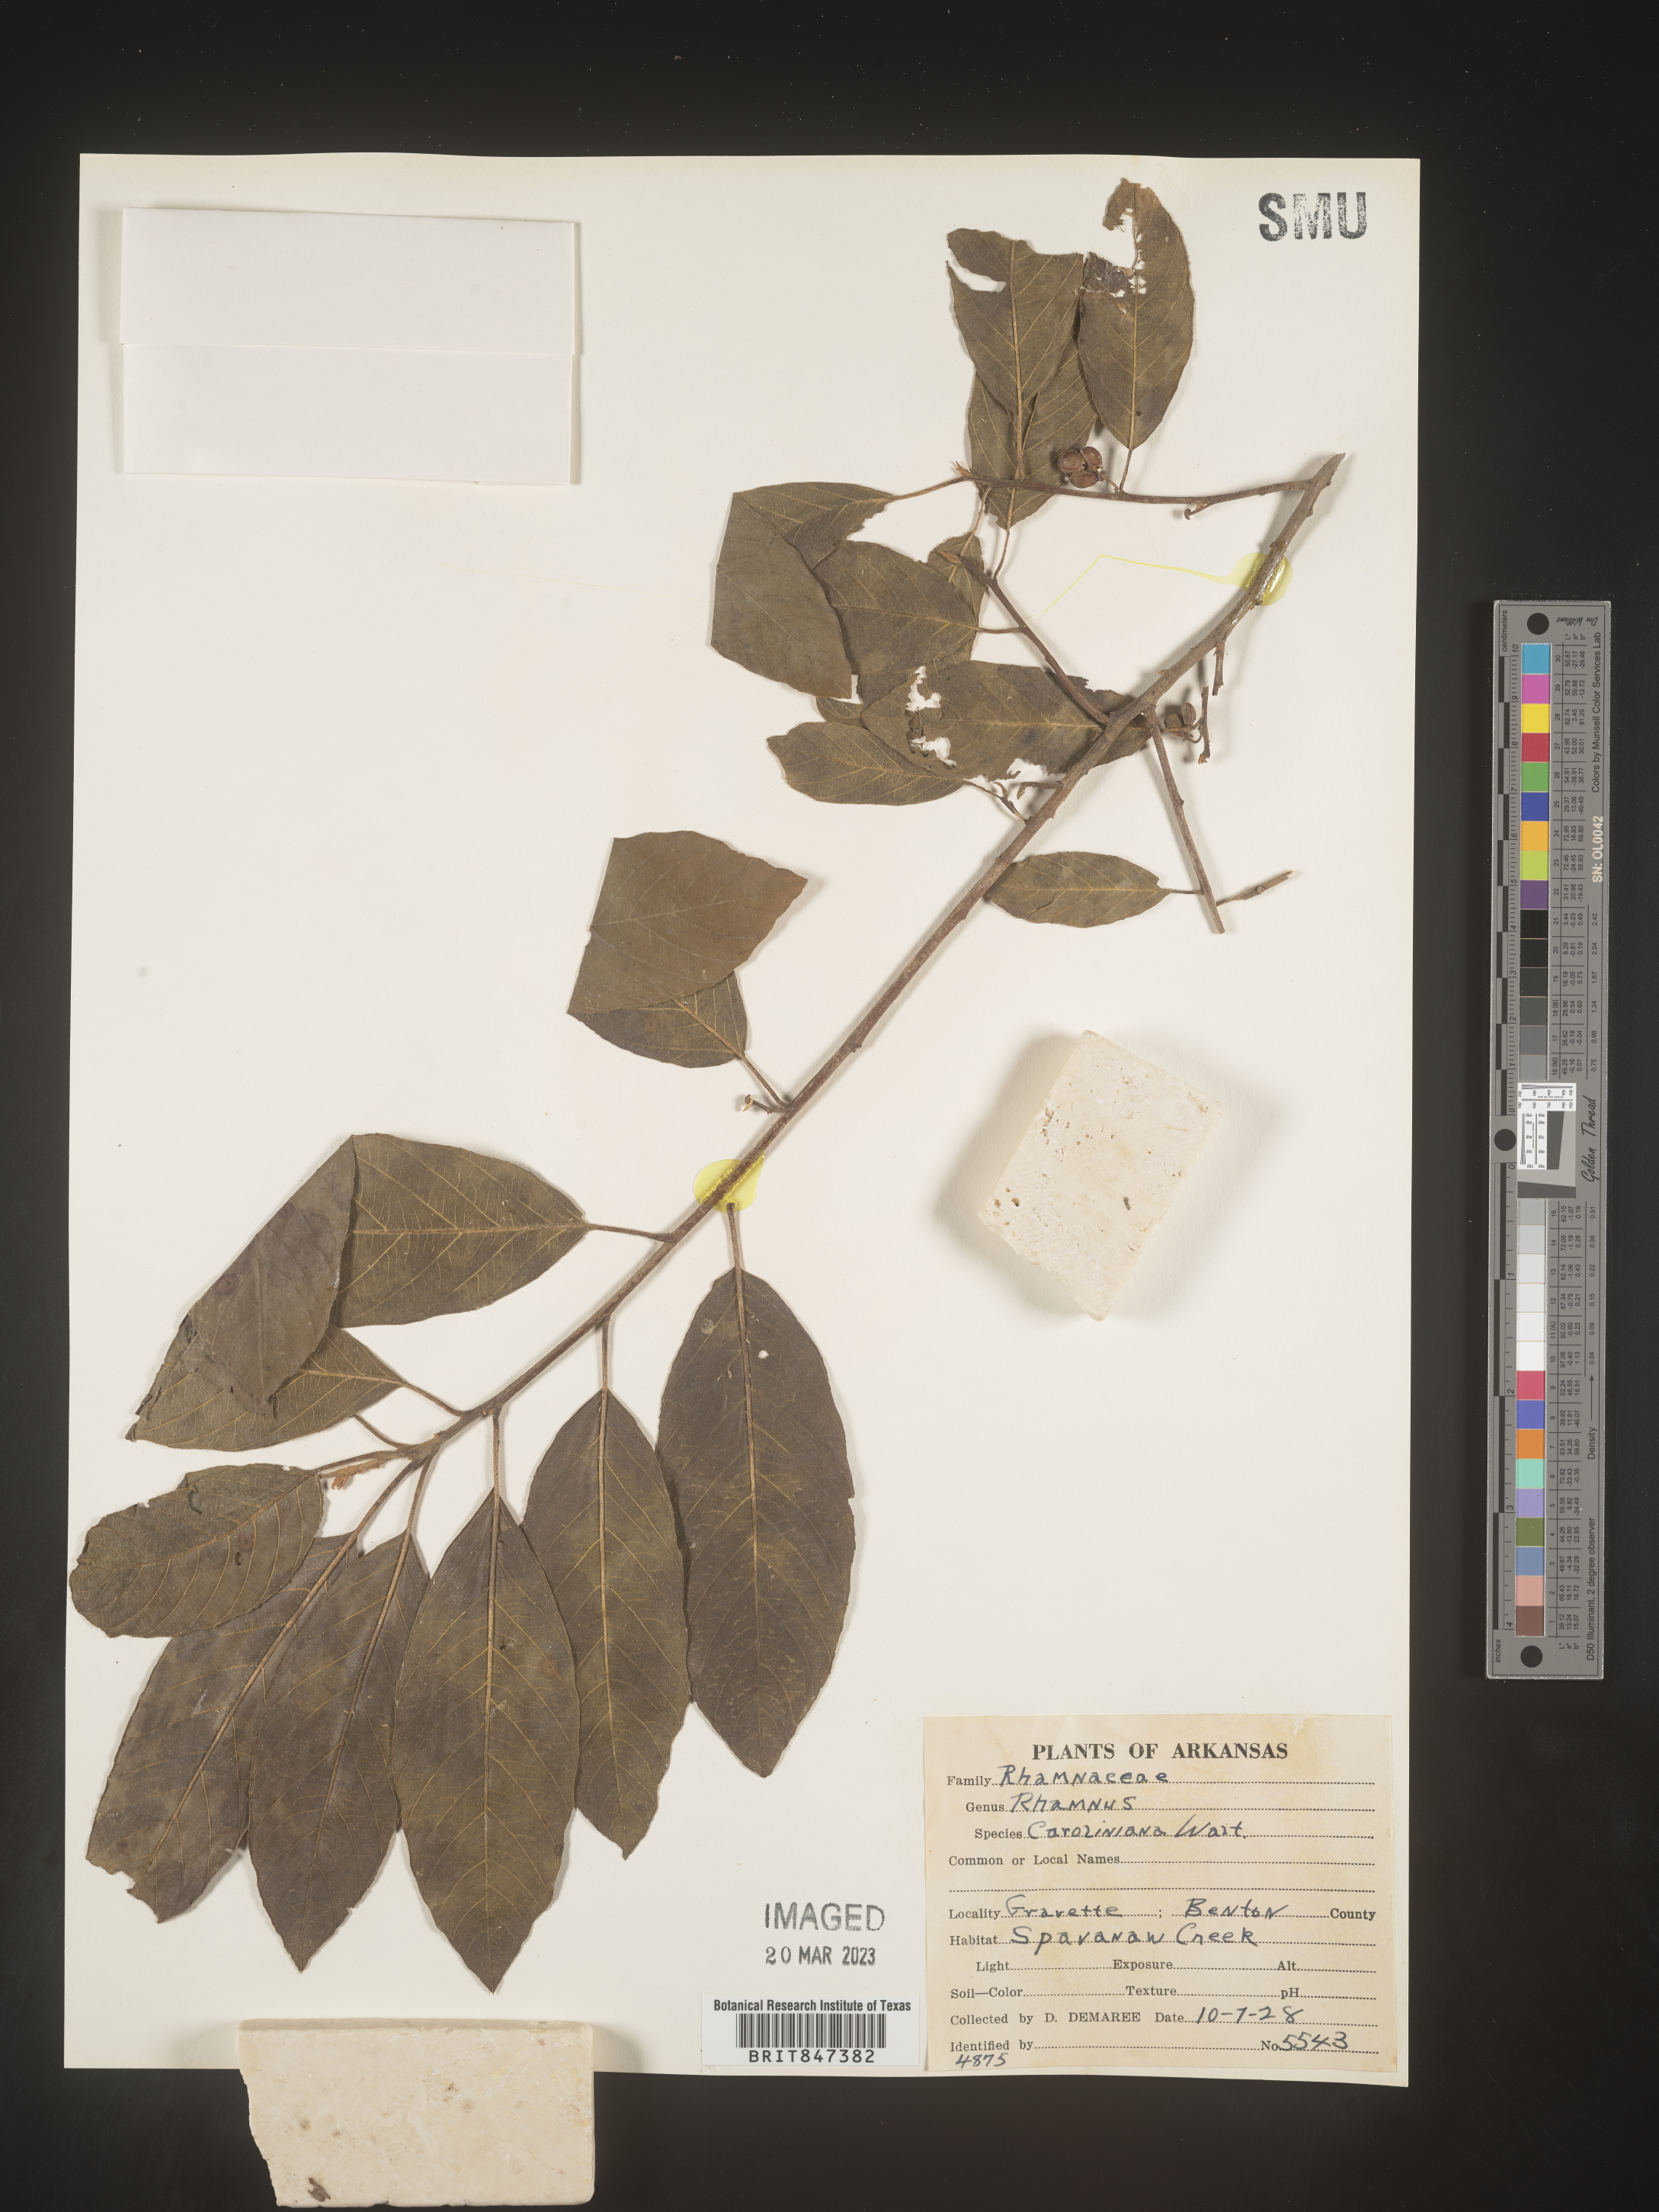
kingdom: Plantae
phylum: Tracheophyta
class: Magnoliopsida
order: Rosales
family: Rhamnaceae
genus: Frangula
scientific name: Frangula caroliniana
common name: Carolina buckthorn
